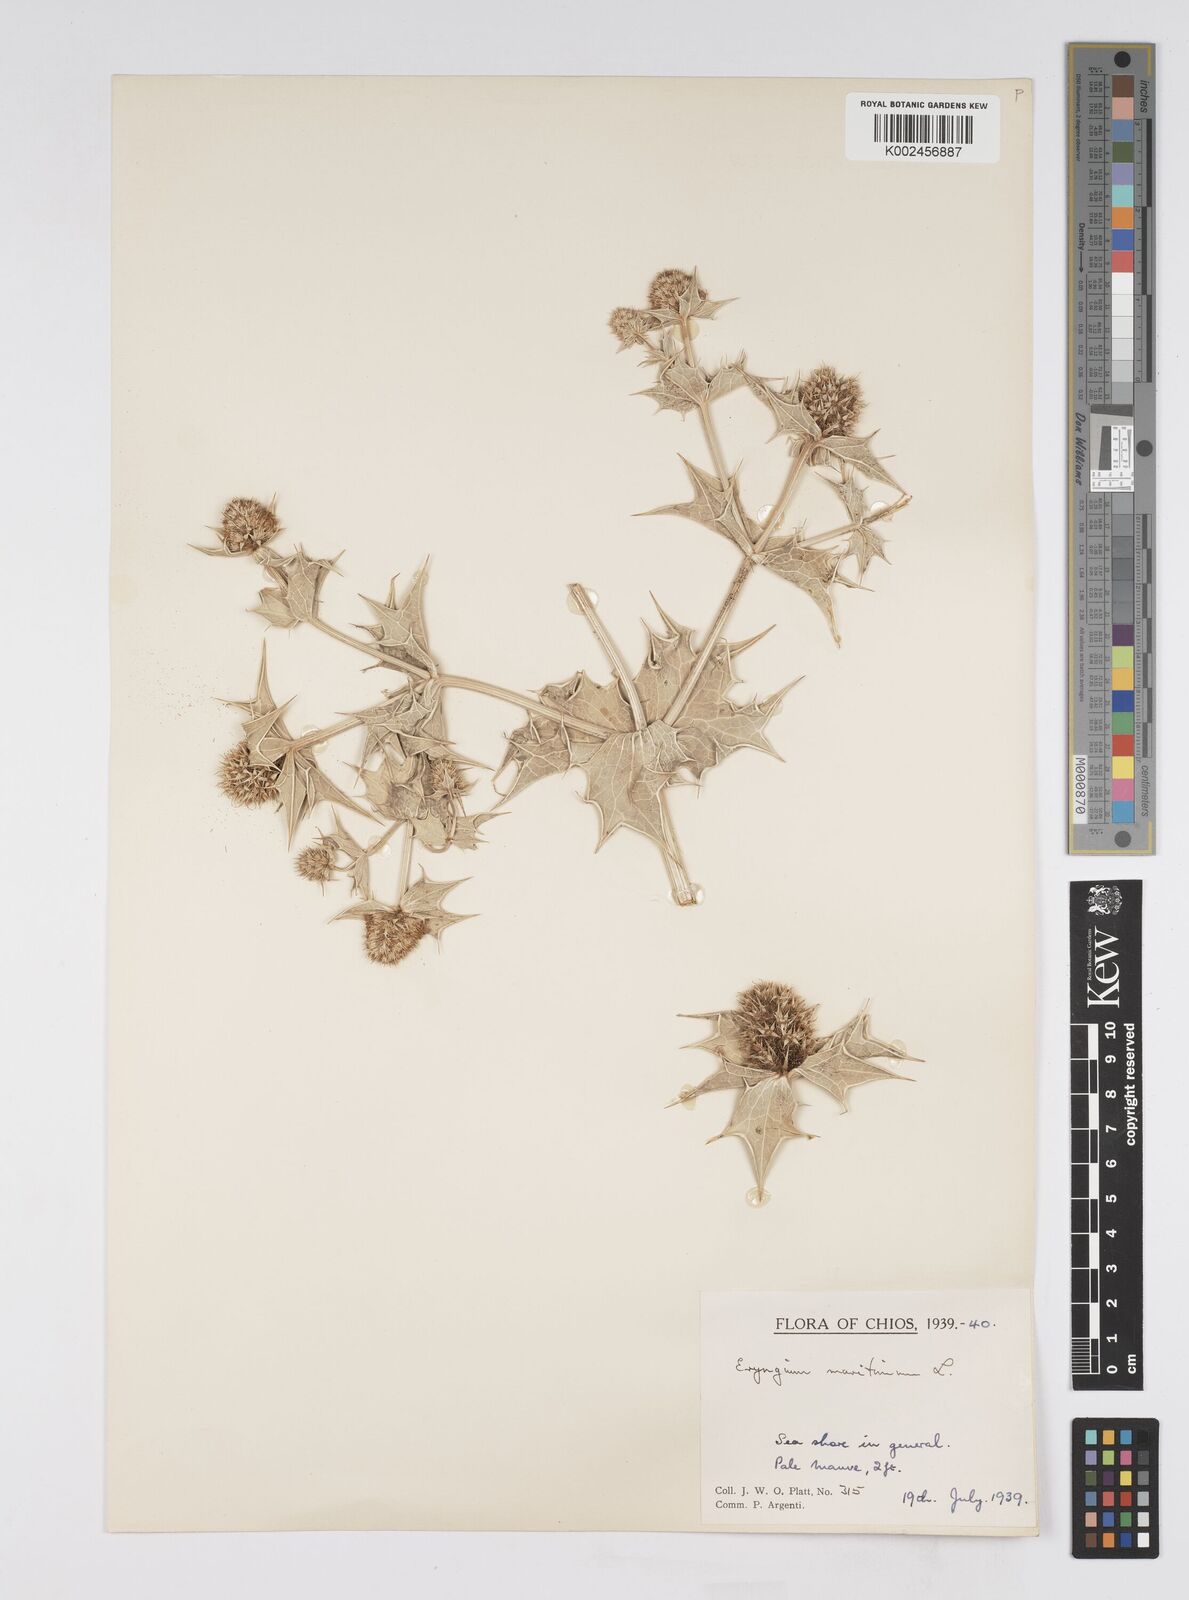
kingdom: Plantae
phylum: Tracheophyta
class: Magnoliopsida
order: Apiales
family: Apiaceae
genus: Eryngium
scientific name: Eryngium maritimum
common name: Sea-holly
